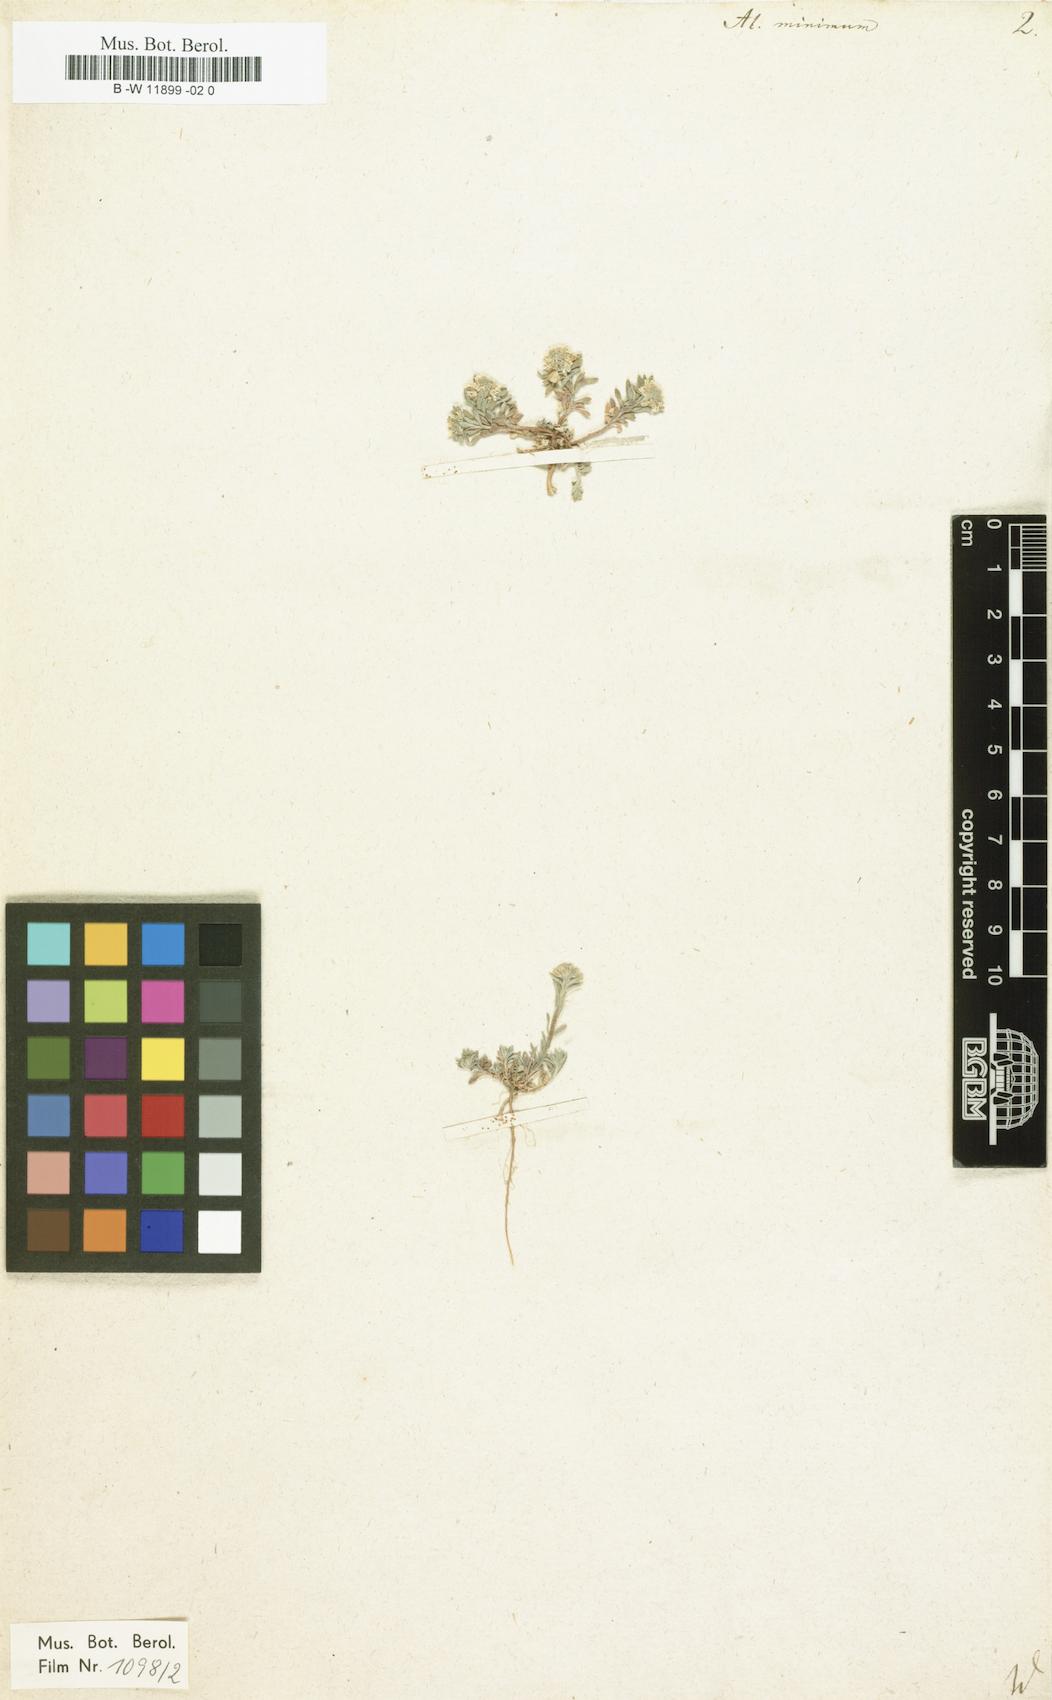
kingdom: Plantae
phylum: Tracheophyta
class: Magnoliopsida
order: Brassicales
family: Brassicaceae
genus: Alyssum
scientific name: Alyssum turkestanicum
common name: Desert alyssum
